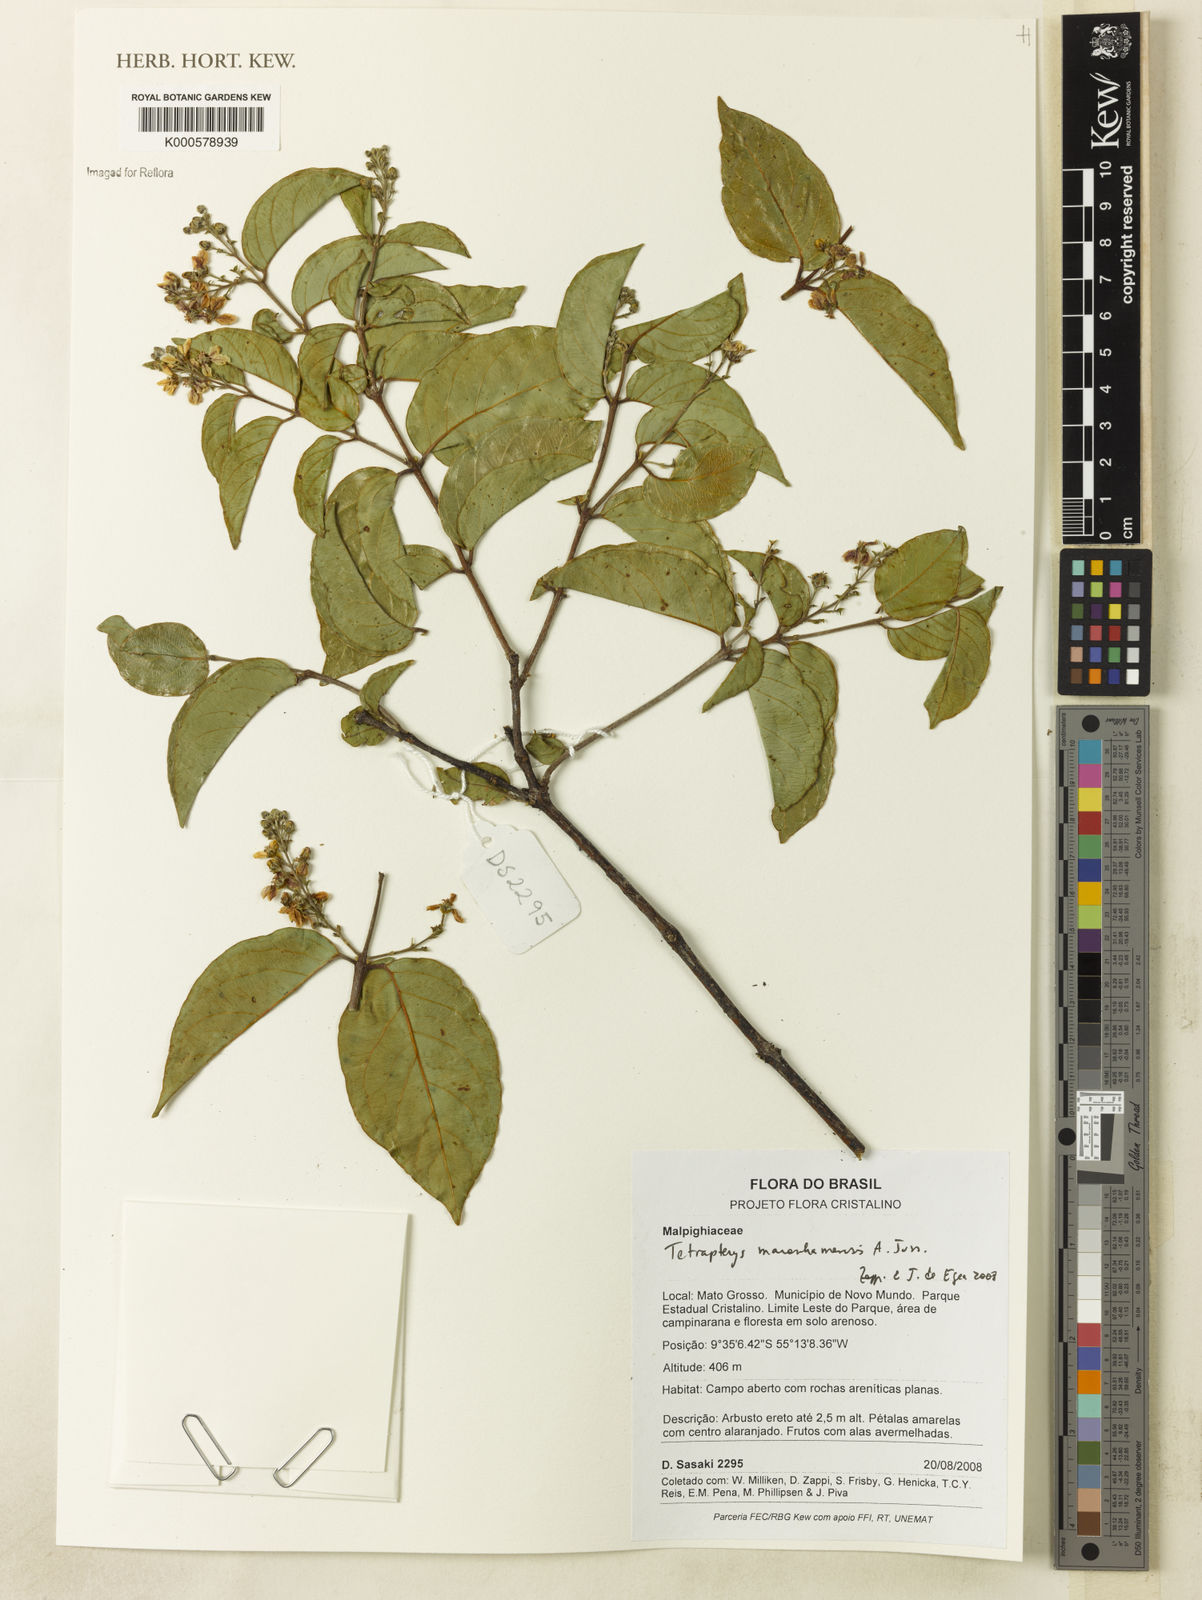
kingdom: Plantae
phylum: Tracheophyta
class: Magnoliopsida
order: Malpighiales
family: Malpighiaceae
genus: Glicophyllum
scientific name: Glicophyllum maranhamense
